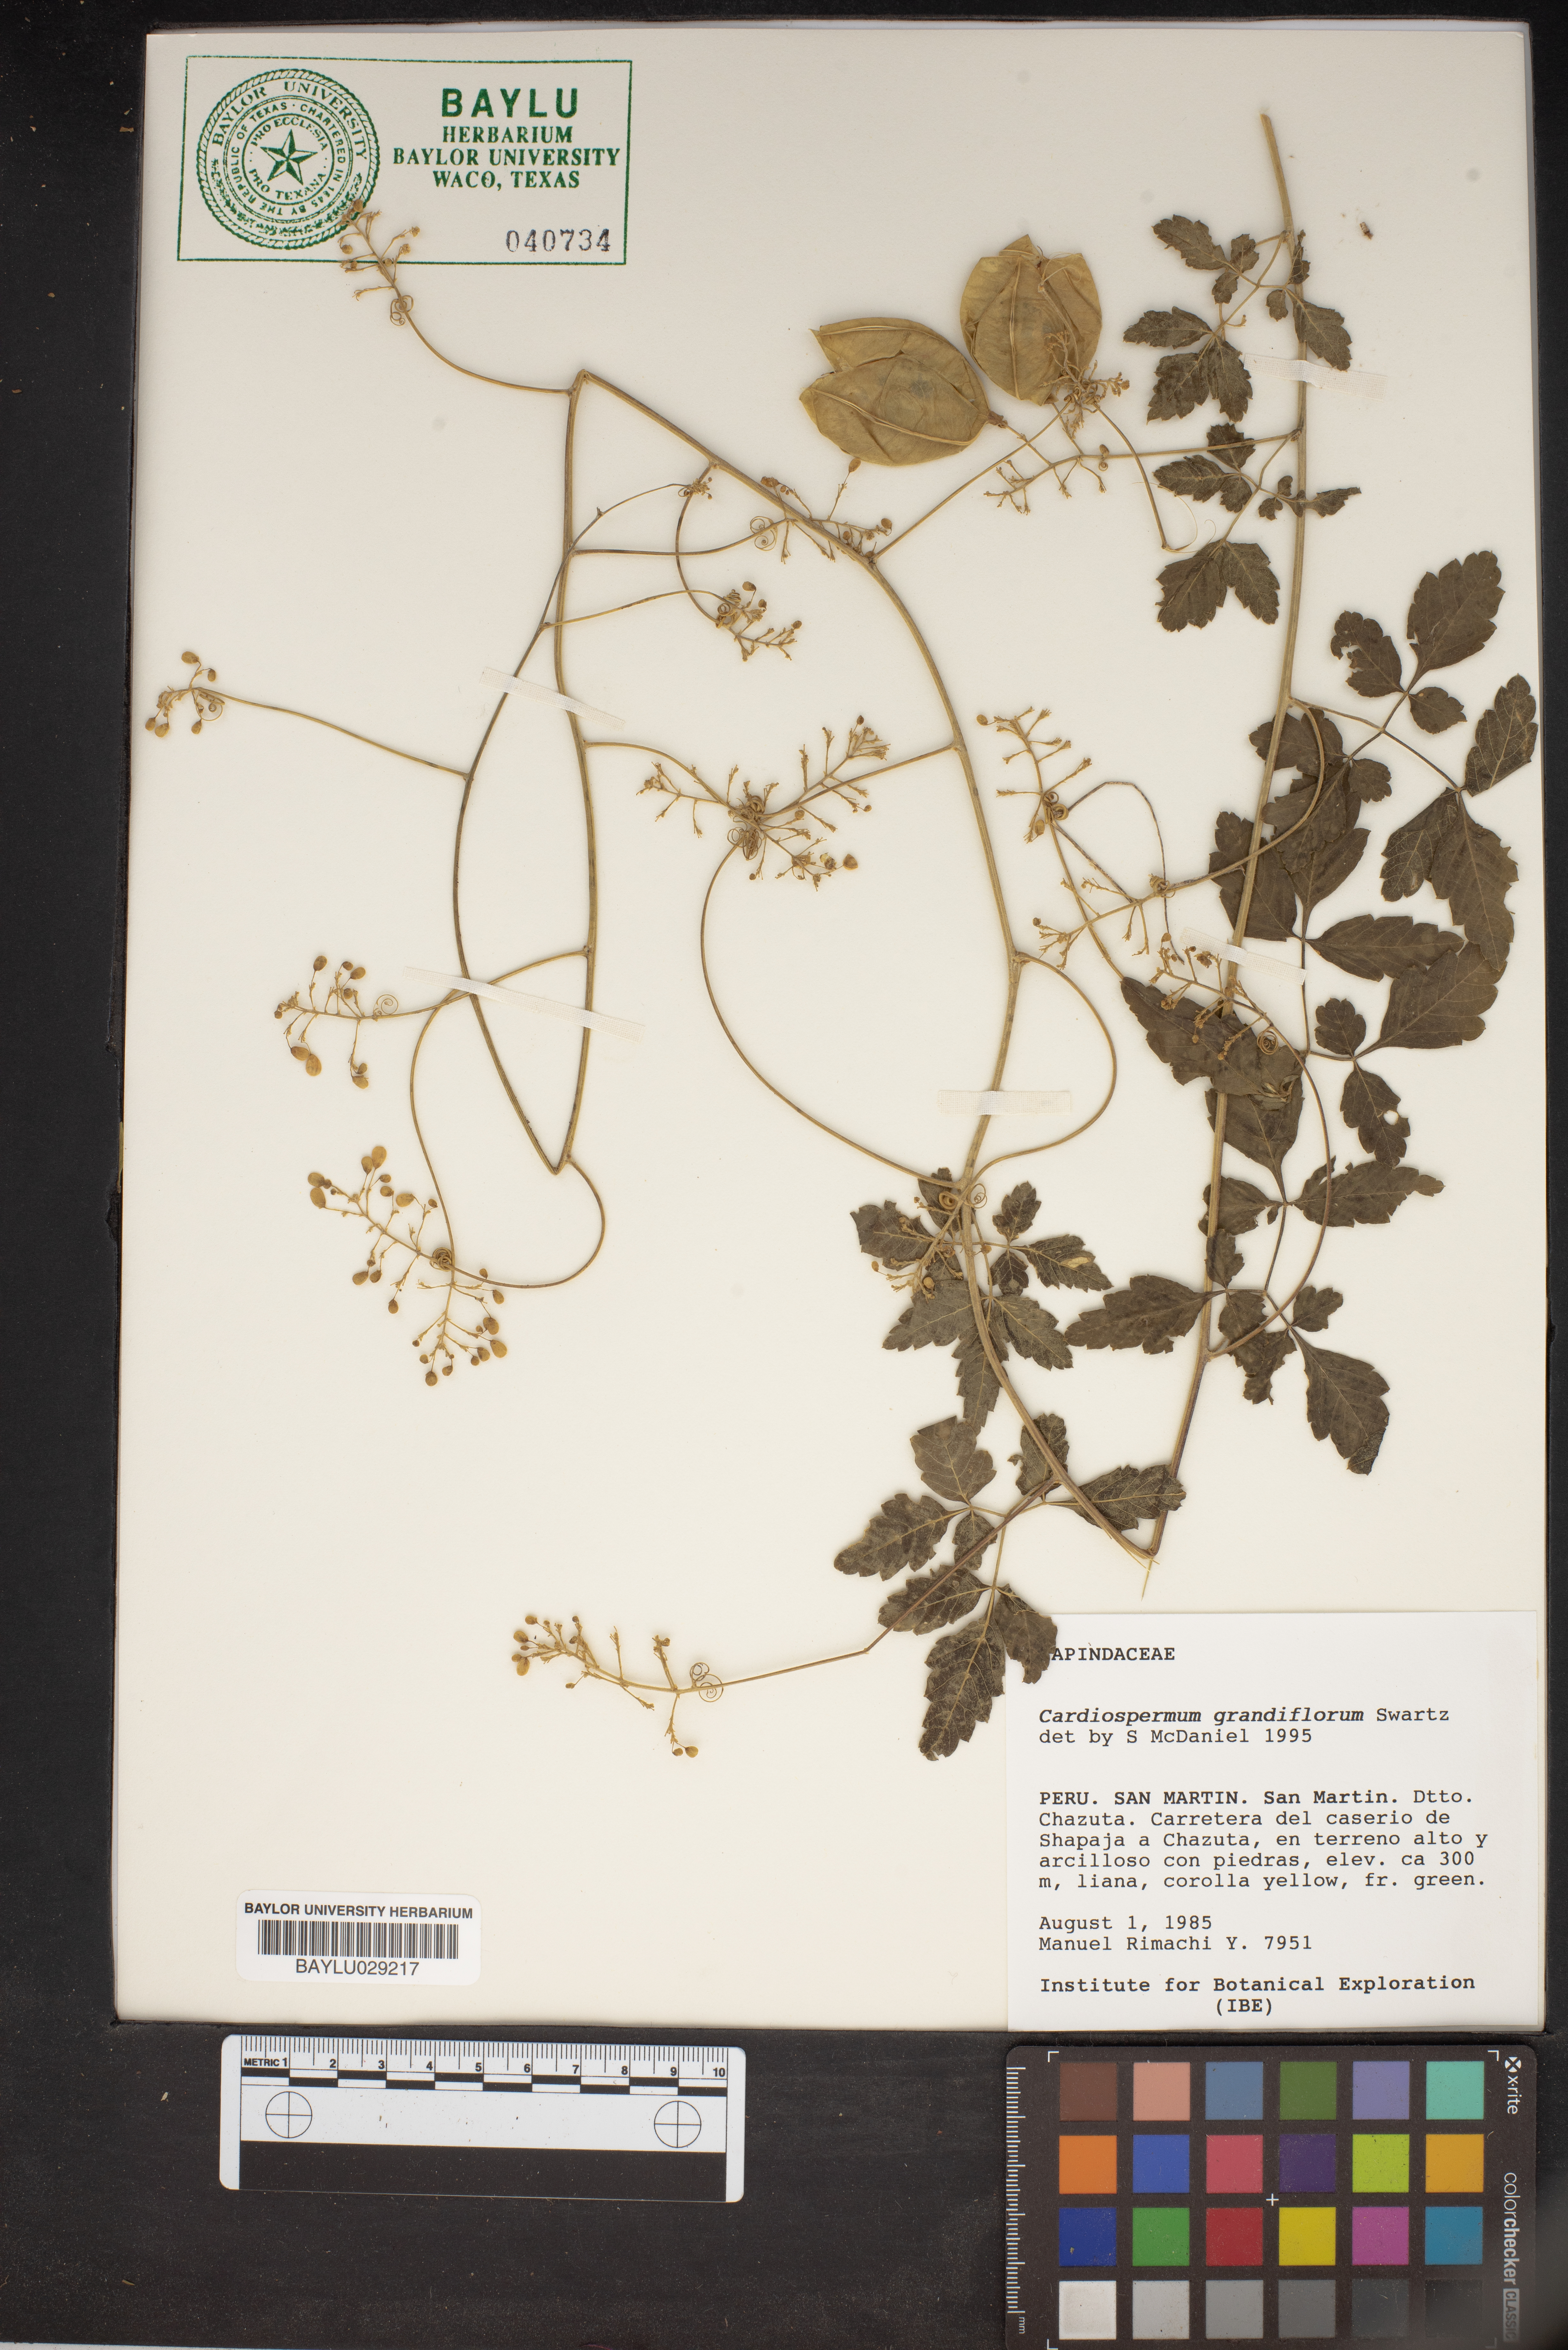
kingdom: Plantae
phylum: Tracheophyta
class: Magnoliopsida
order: Sapindales
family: Sapindaceae
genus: Cardiospermum
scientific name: Cardiospermum grandiflorum
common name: Balloon vine
